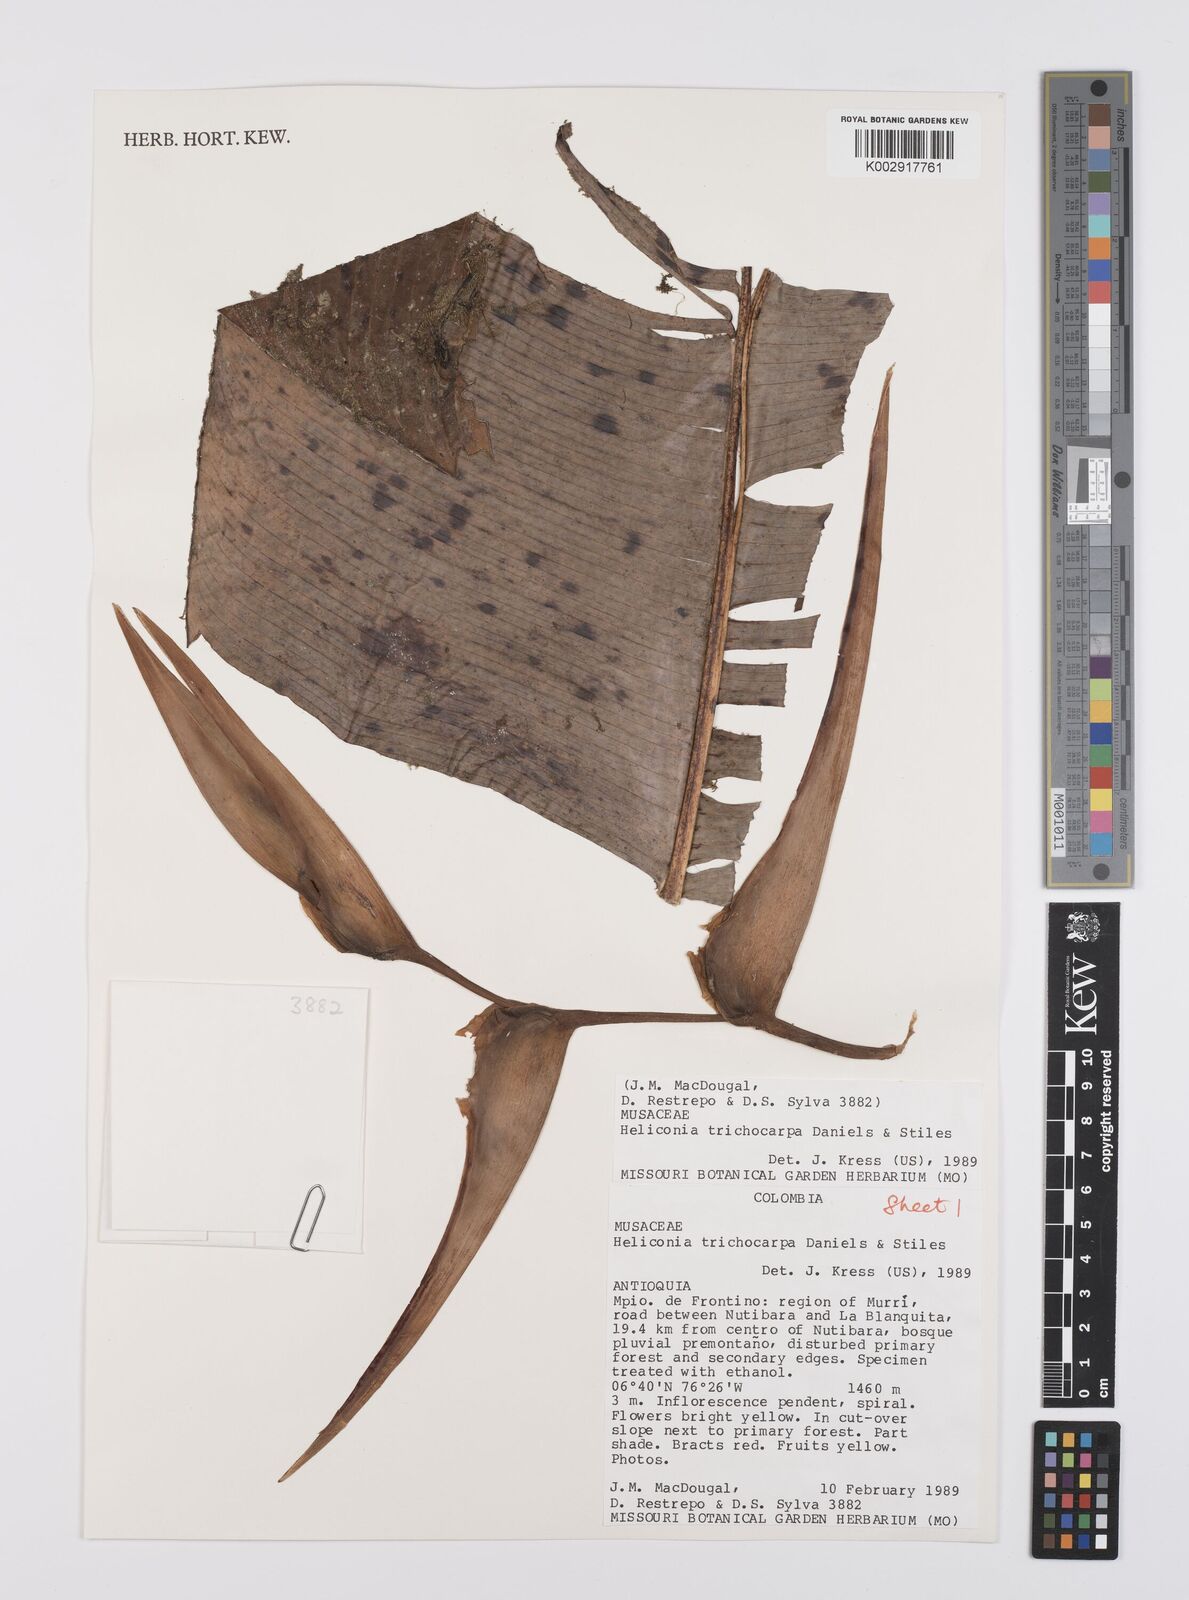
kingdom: Plantae
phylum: Tracheophyta
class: Liliopsida
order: Zingiberales
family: Heliconiaceae
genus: Heliconia
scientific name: Heliconia trichocarpa
